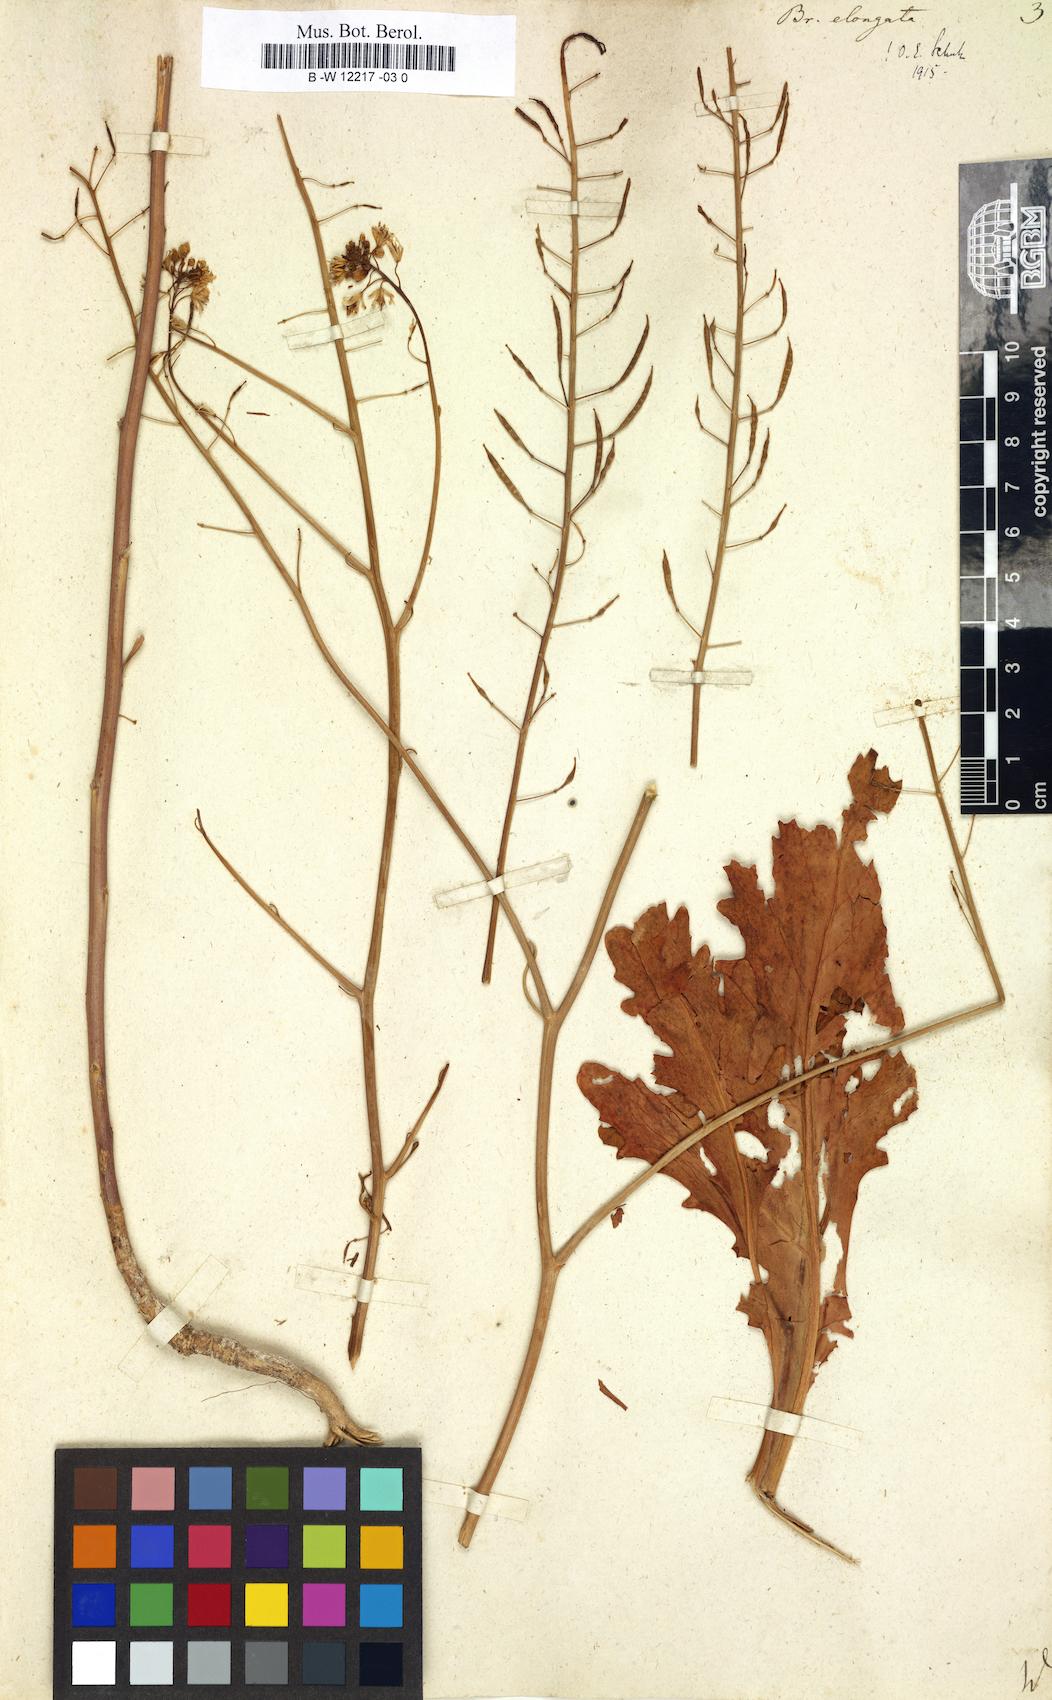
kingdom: Plantae
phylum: Tracheophyta
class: Magnoliopsida
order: Brassicales
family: Brassicaceae
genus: Brassica
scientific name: Brassica elongata
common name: Long-stalked rape
